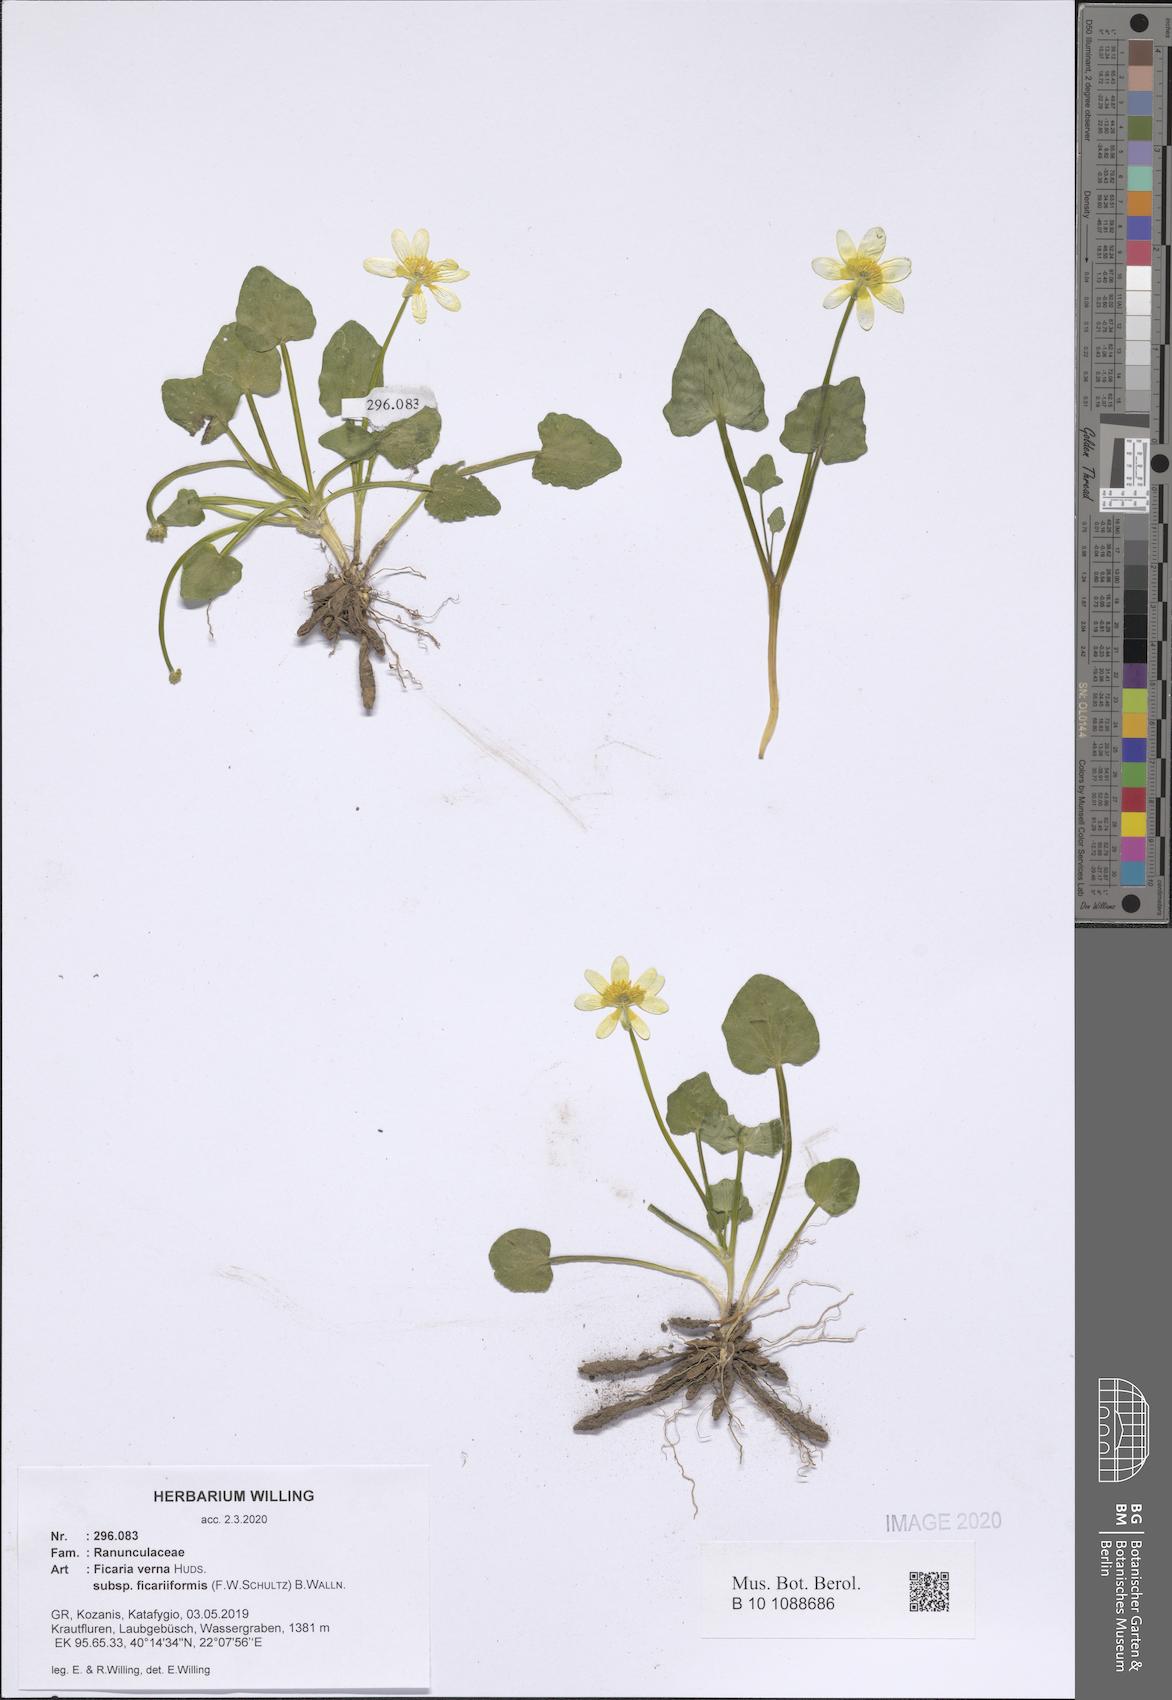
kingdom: Plantae
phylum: Tracheophyta
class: Magnoliopsida
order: Ranunculales
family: Ranunculaceae
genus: Ficaria
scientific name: Ficaria grandiflora
